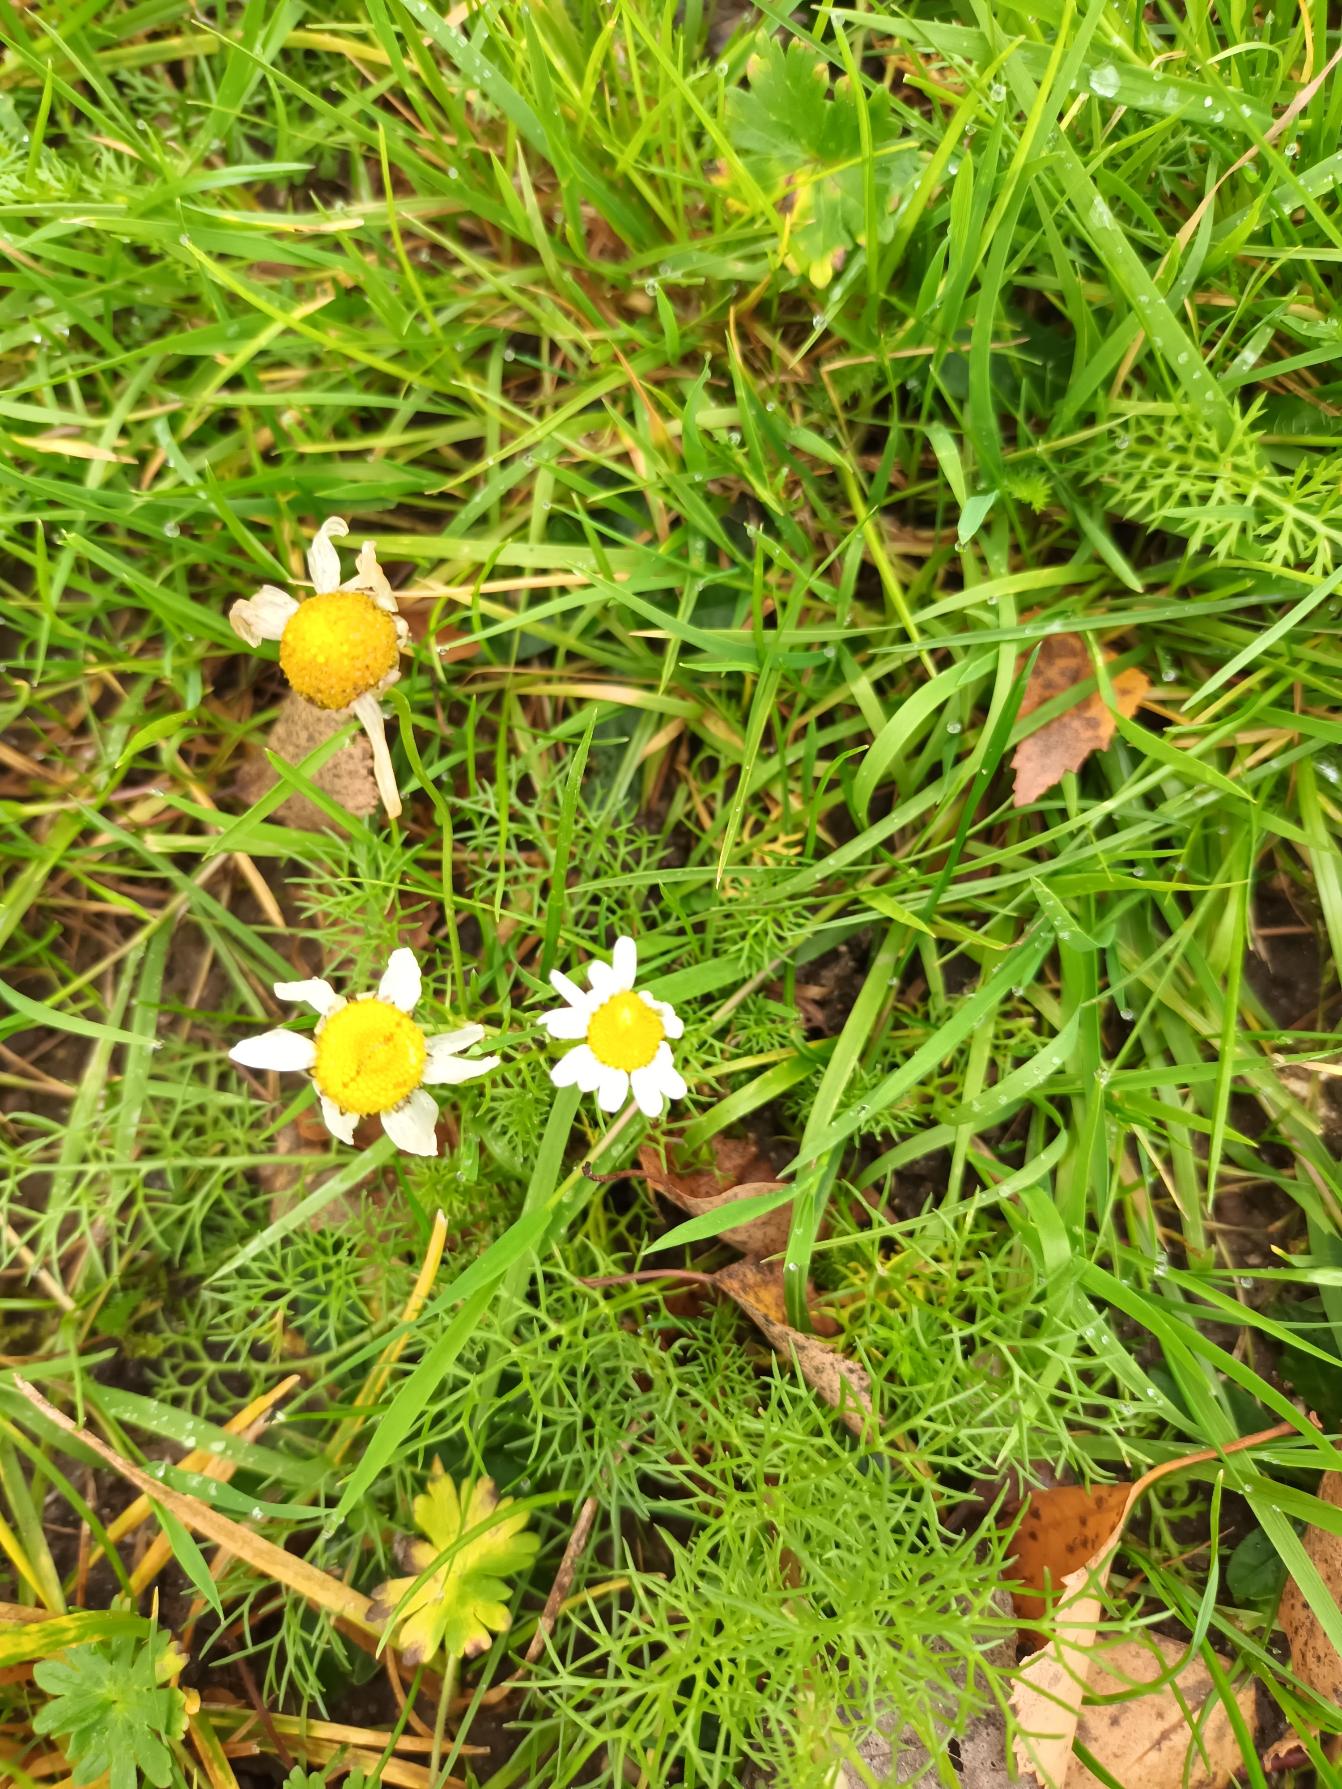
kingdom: Plantae
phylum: Tracheophyta
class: Magnoliopsida
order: Asterales
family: Asteraceae
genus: Tripleurospermum
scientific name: Tripleurospermum inodorum
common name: Lugtløs kamille
